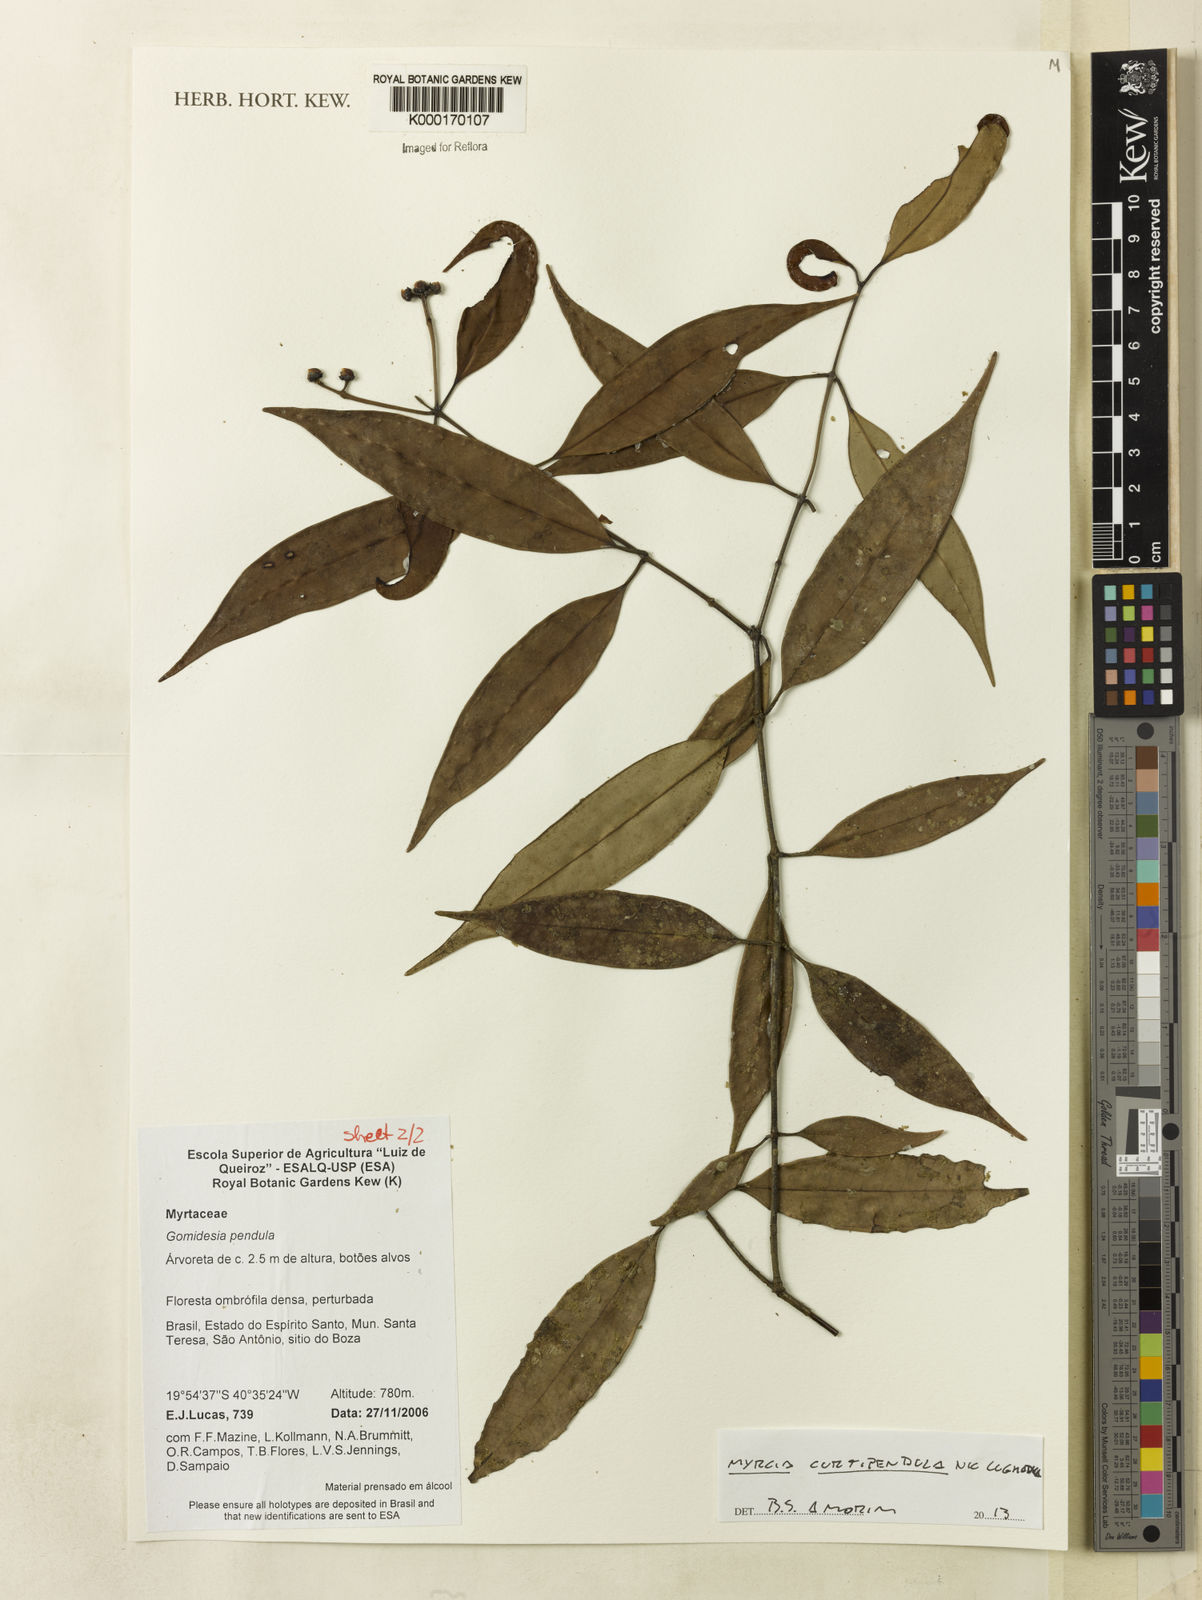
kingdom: Plantae
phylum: Tracheophyta
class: Magnoliopsida
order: Myrtales
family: Myrtaceae
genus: Myrcia
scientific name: Myrcia curtipendula
